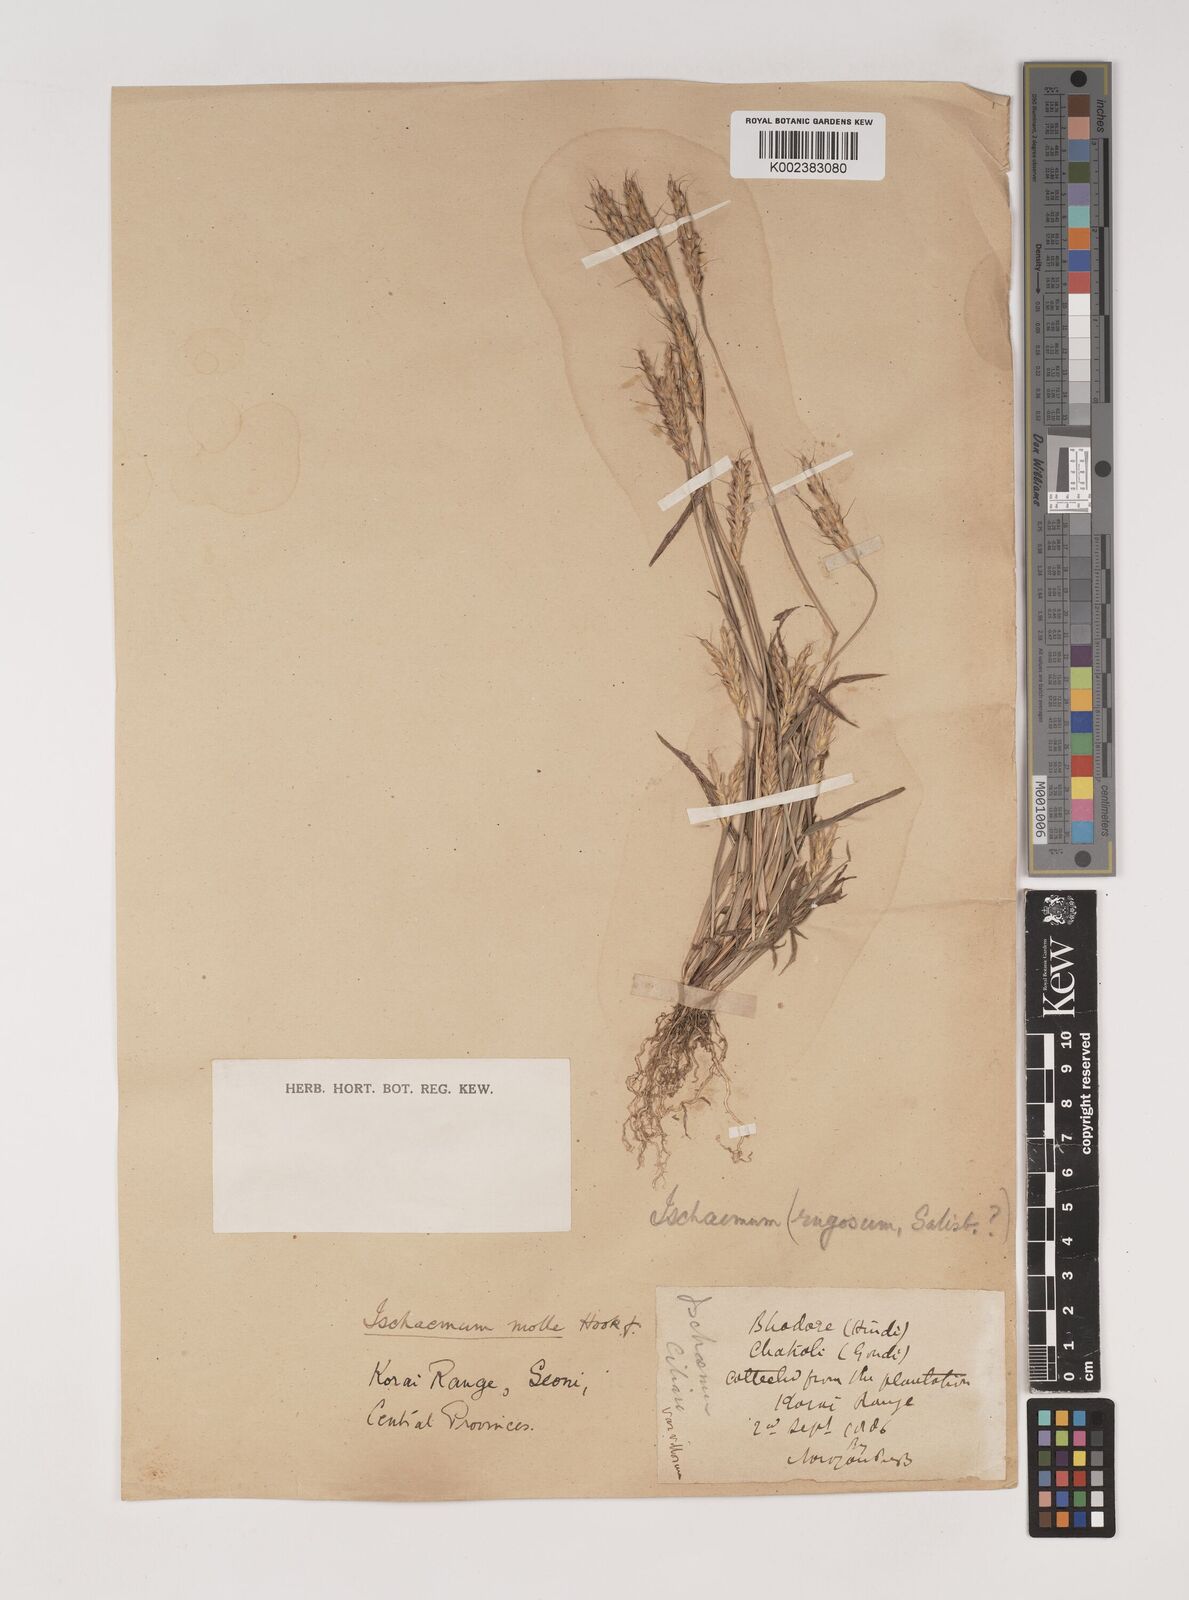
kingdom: Plantae
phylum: Tracheophyta
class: Liliopsida
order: Poales
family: Poaceae
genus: Ischaemum
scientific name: Ischaemum molle
